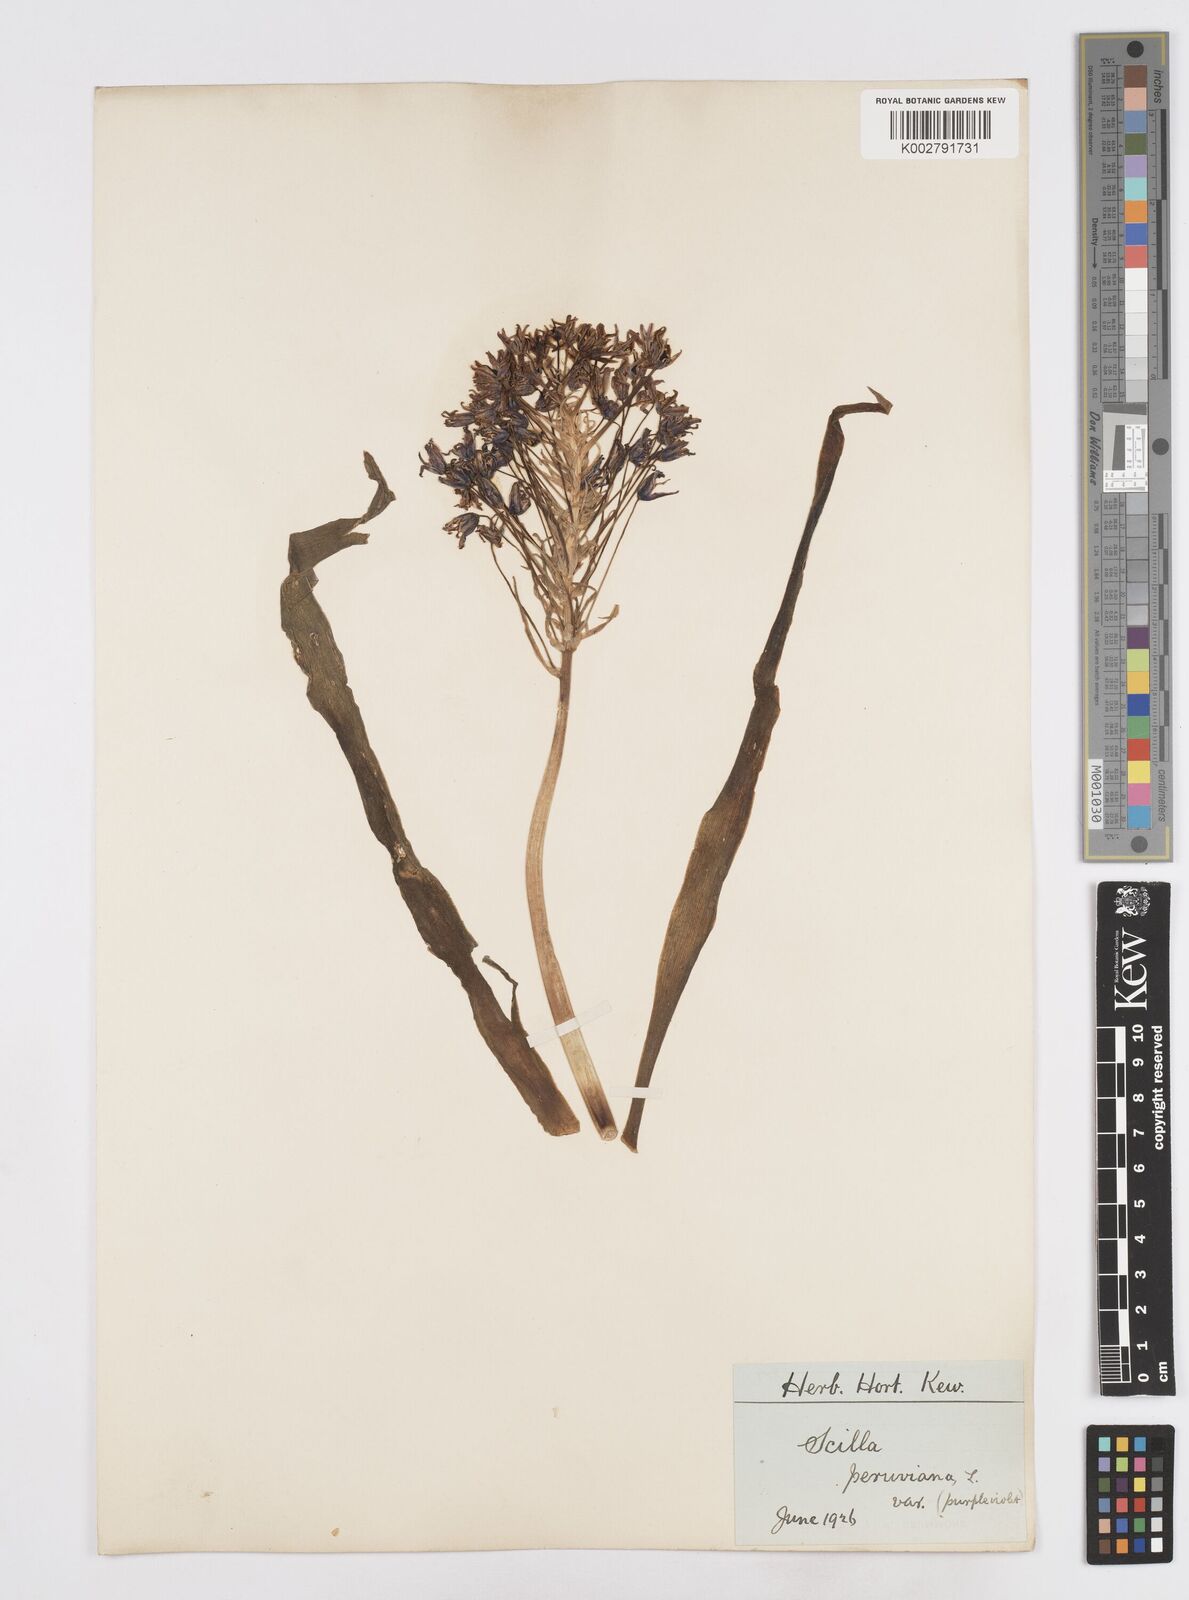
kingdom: Plantae
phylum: Tracheophyta
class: Liliopsida
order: Asparagales
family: Asparagaceae
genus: Scilla
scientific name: Scilla peruviana
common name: Portuguese squill
